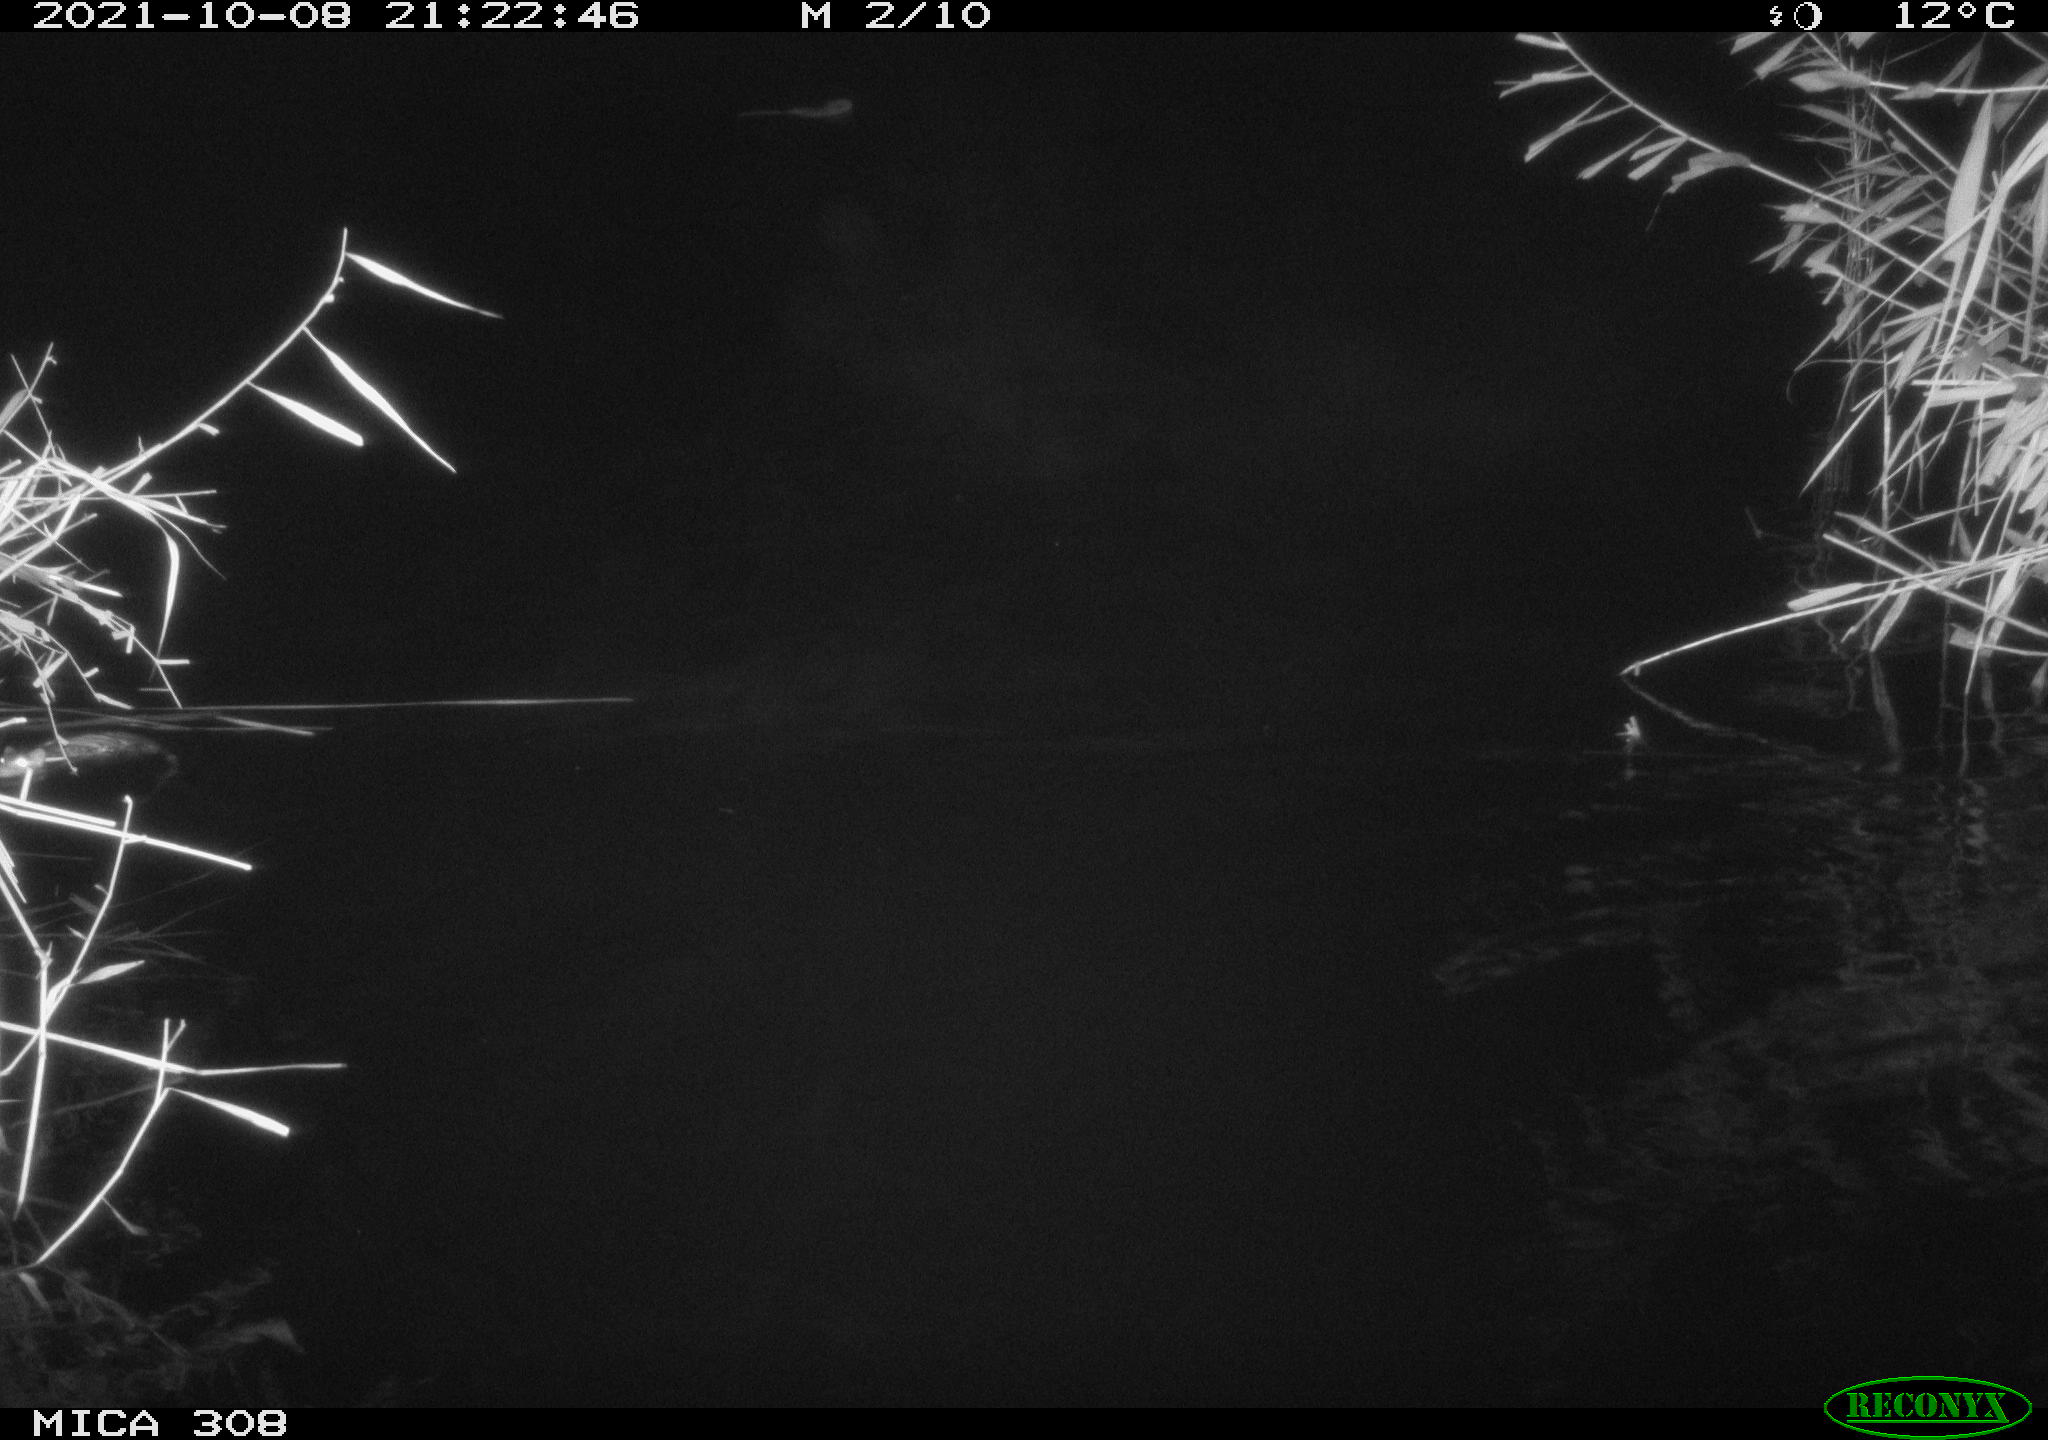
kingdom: Animalia
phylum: Chordata
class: Mammalia
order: Rodentia
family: Cricetidae
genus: Ondatra
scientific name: Ondatra zibethicus
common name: Muskrat
